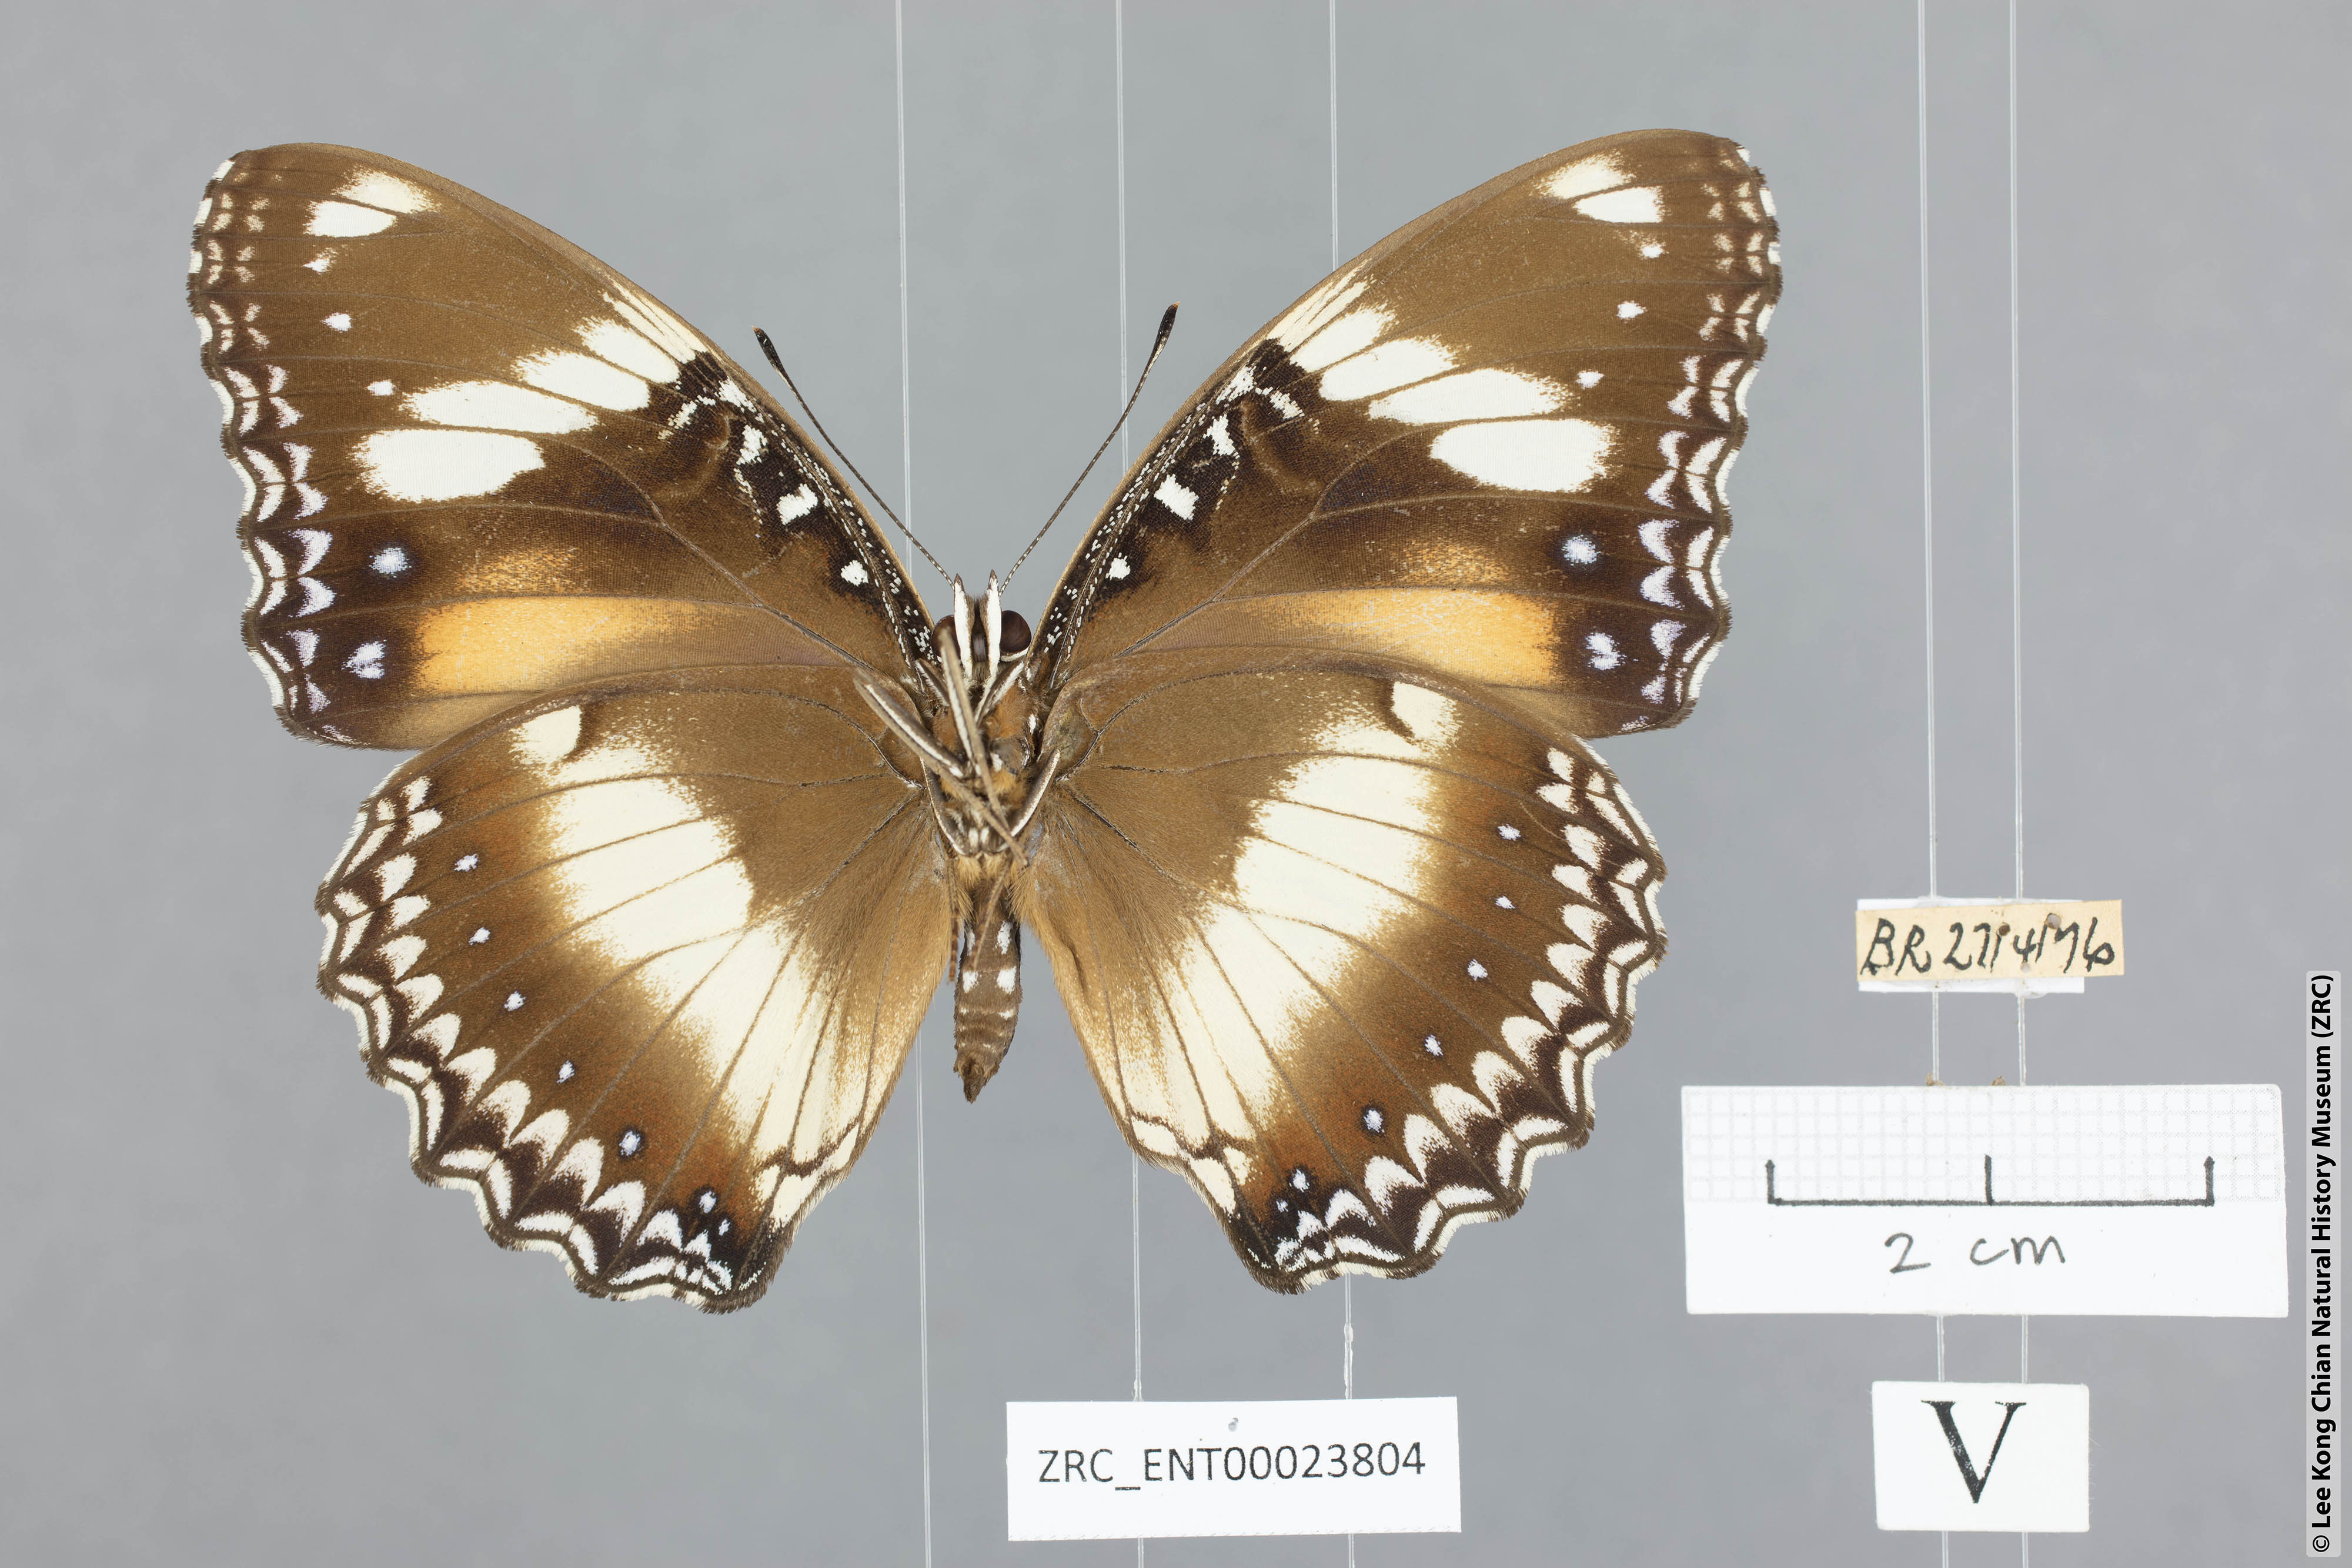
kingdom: Animalia
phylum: Arthropoda
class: Insecta
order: Lepidoptera
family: Nymphalidae
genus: Hypolimnas
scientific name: Hypolimnas bolina
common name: Great eggfly
